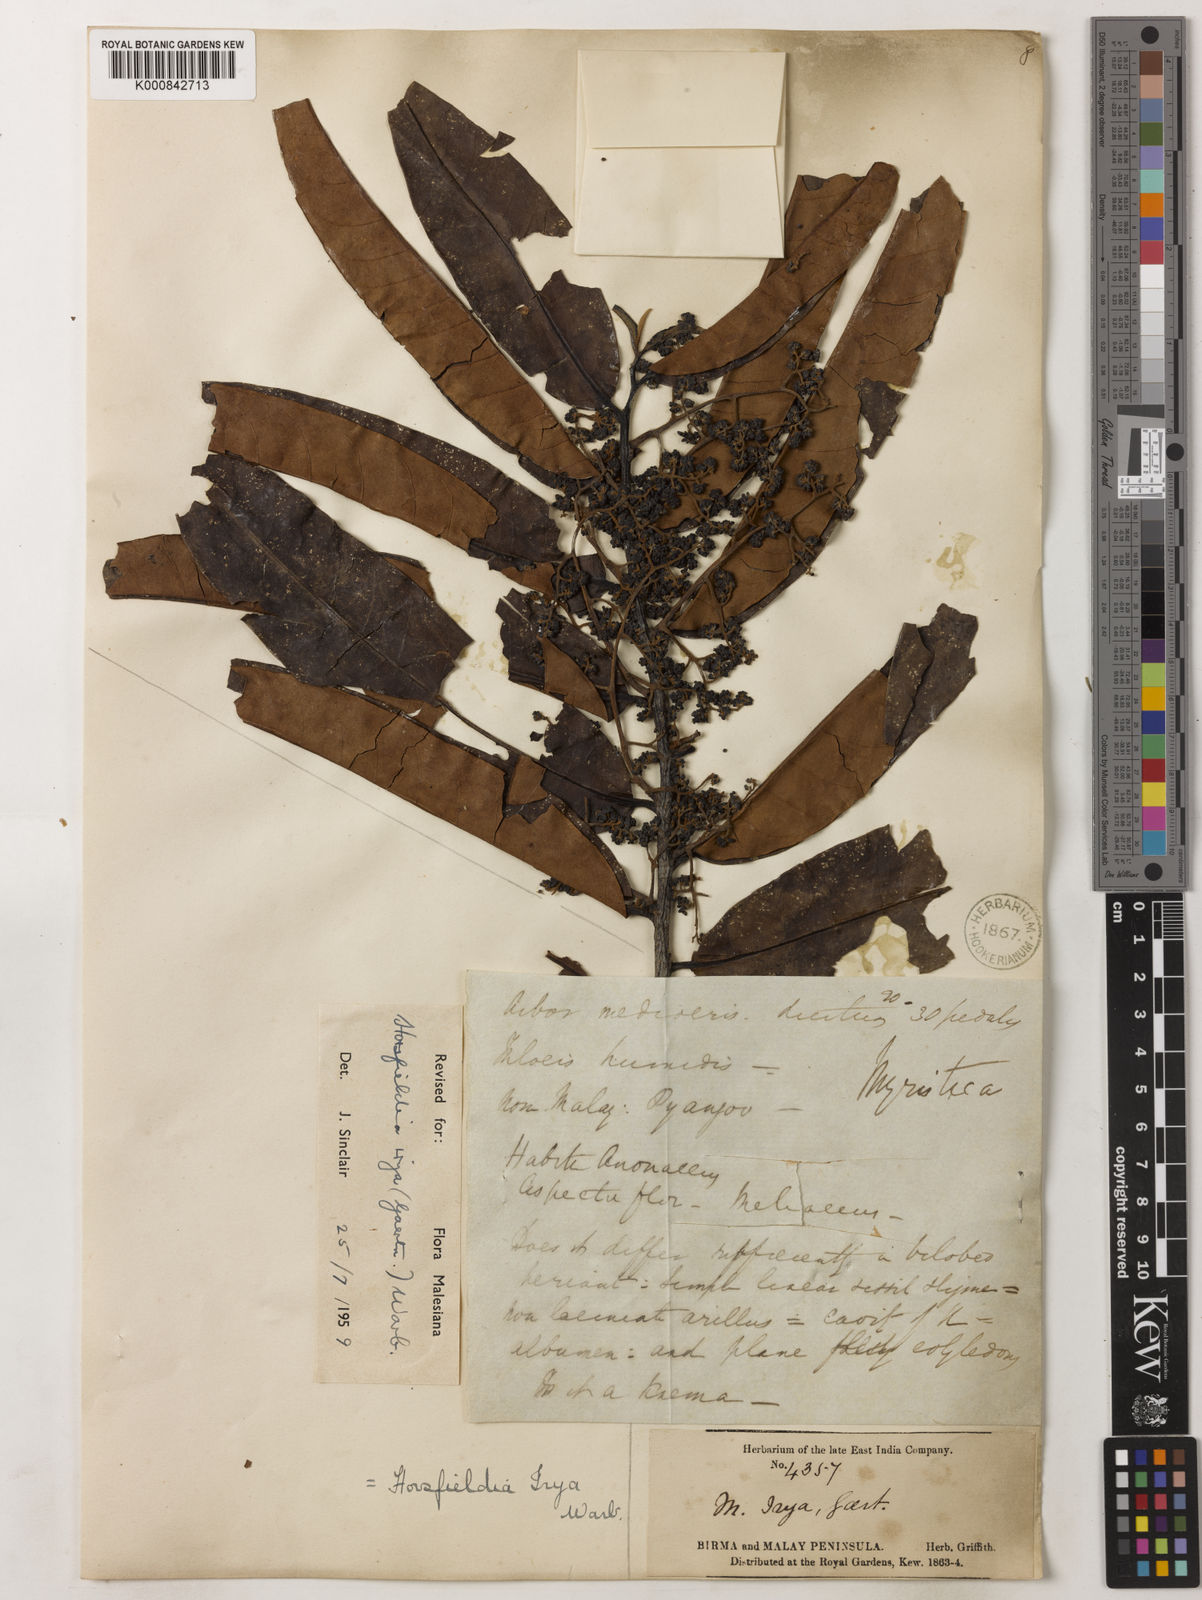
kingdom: Plantae
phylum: Tracheophyta
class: Magnoliopsida
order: Magnoliales
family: Myristicaceae
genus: Horsfieldia
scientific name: Horsfieldia irya
